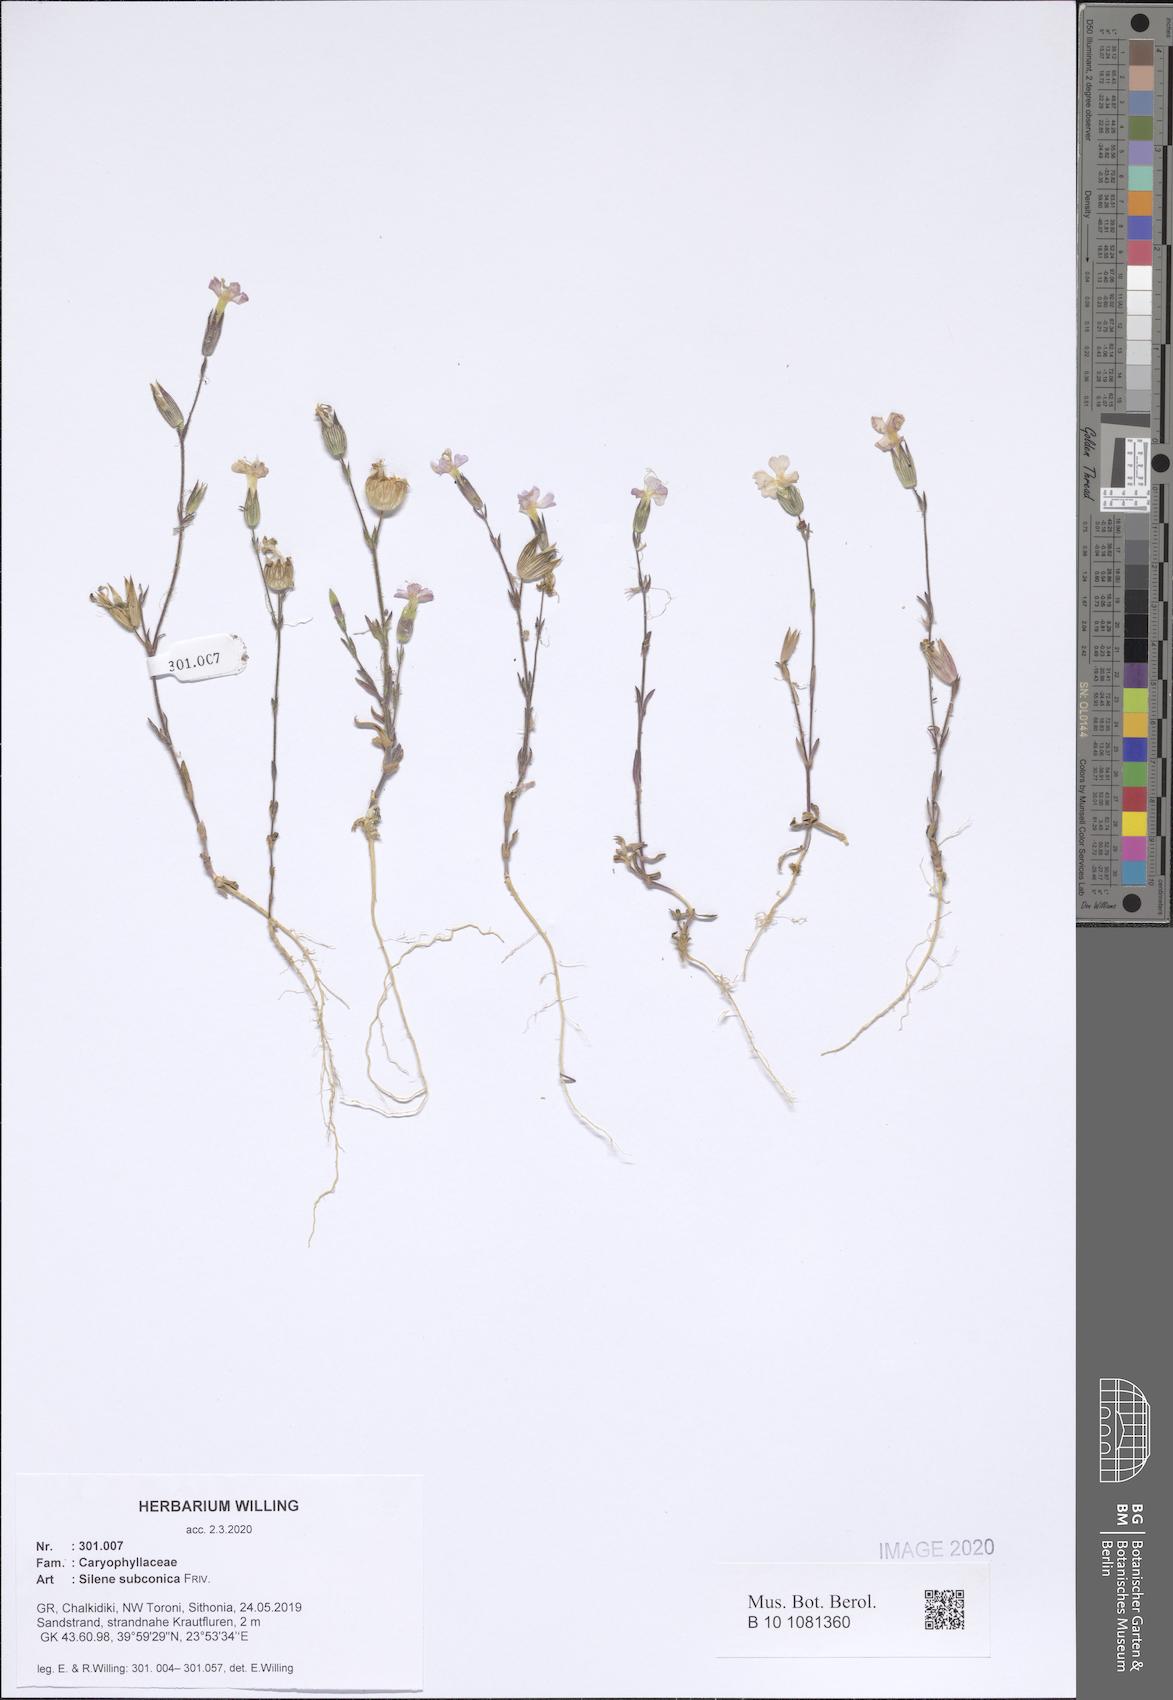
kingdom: Plantae
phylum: Tracheophyta
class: Magnoliopsida
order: Caryophyllales
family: Caryophyllaceae
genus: Silene
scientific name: Silene subconica
